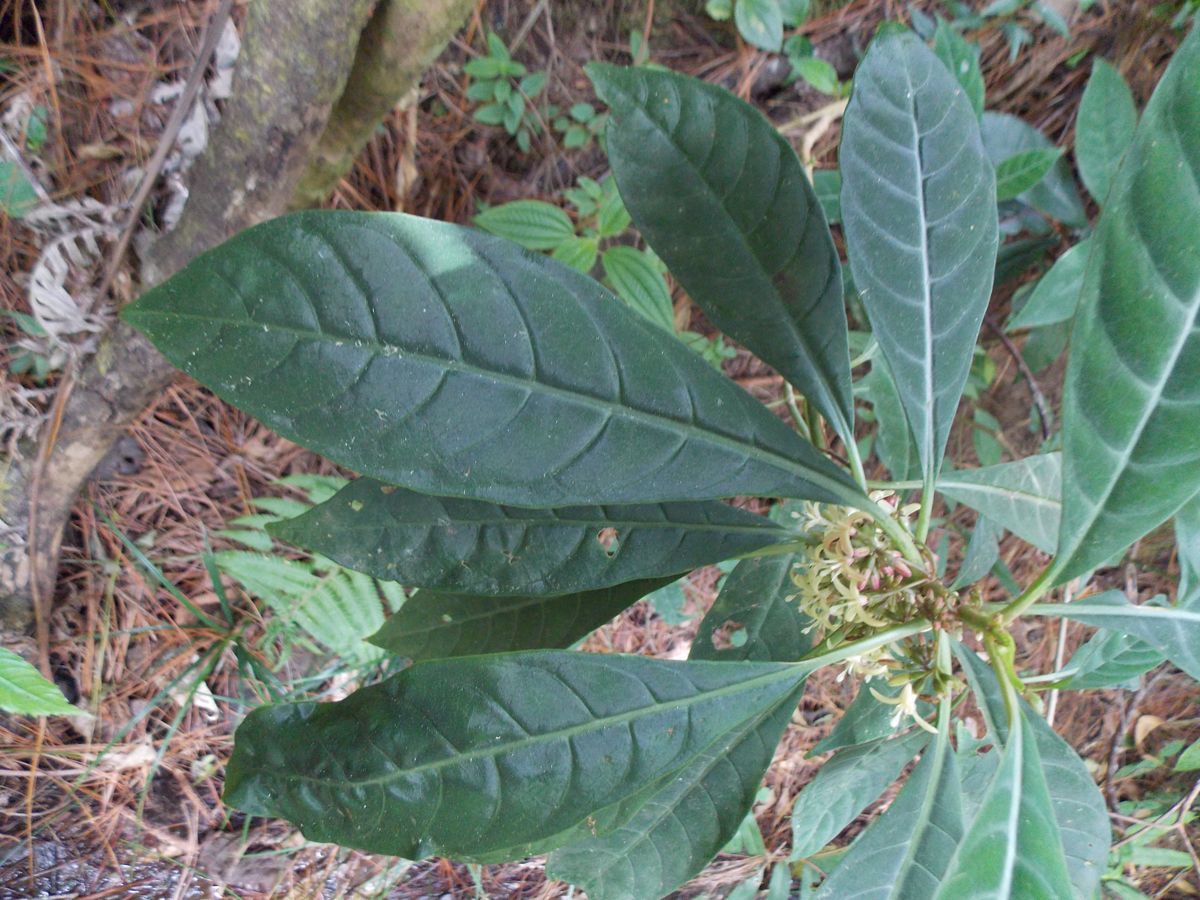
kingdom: Plantae
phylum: Tracheophyta
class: Magnoliopsida
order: Gentianales
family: Rubiaceae
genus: Hoffmannia
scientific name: Hoffmannia nicotianifolia
